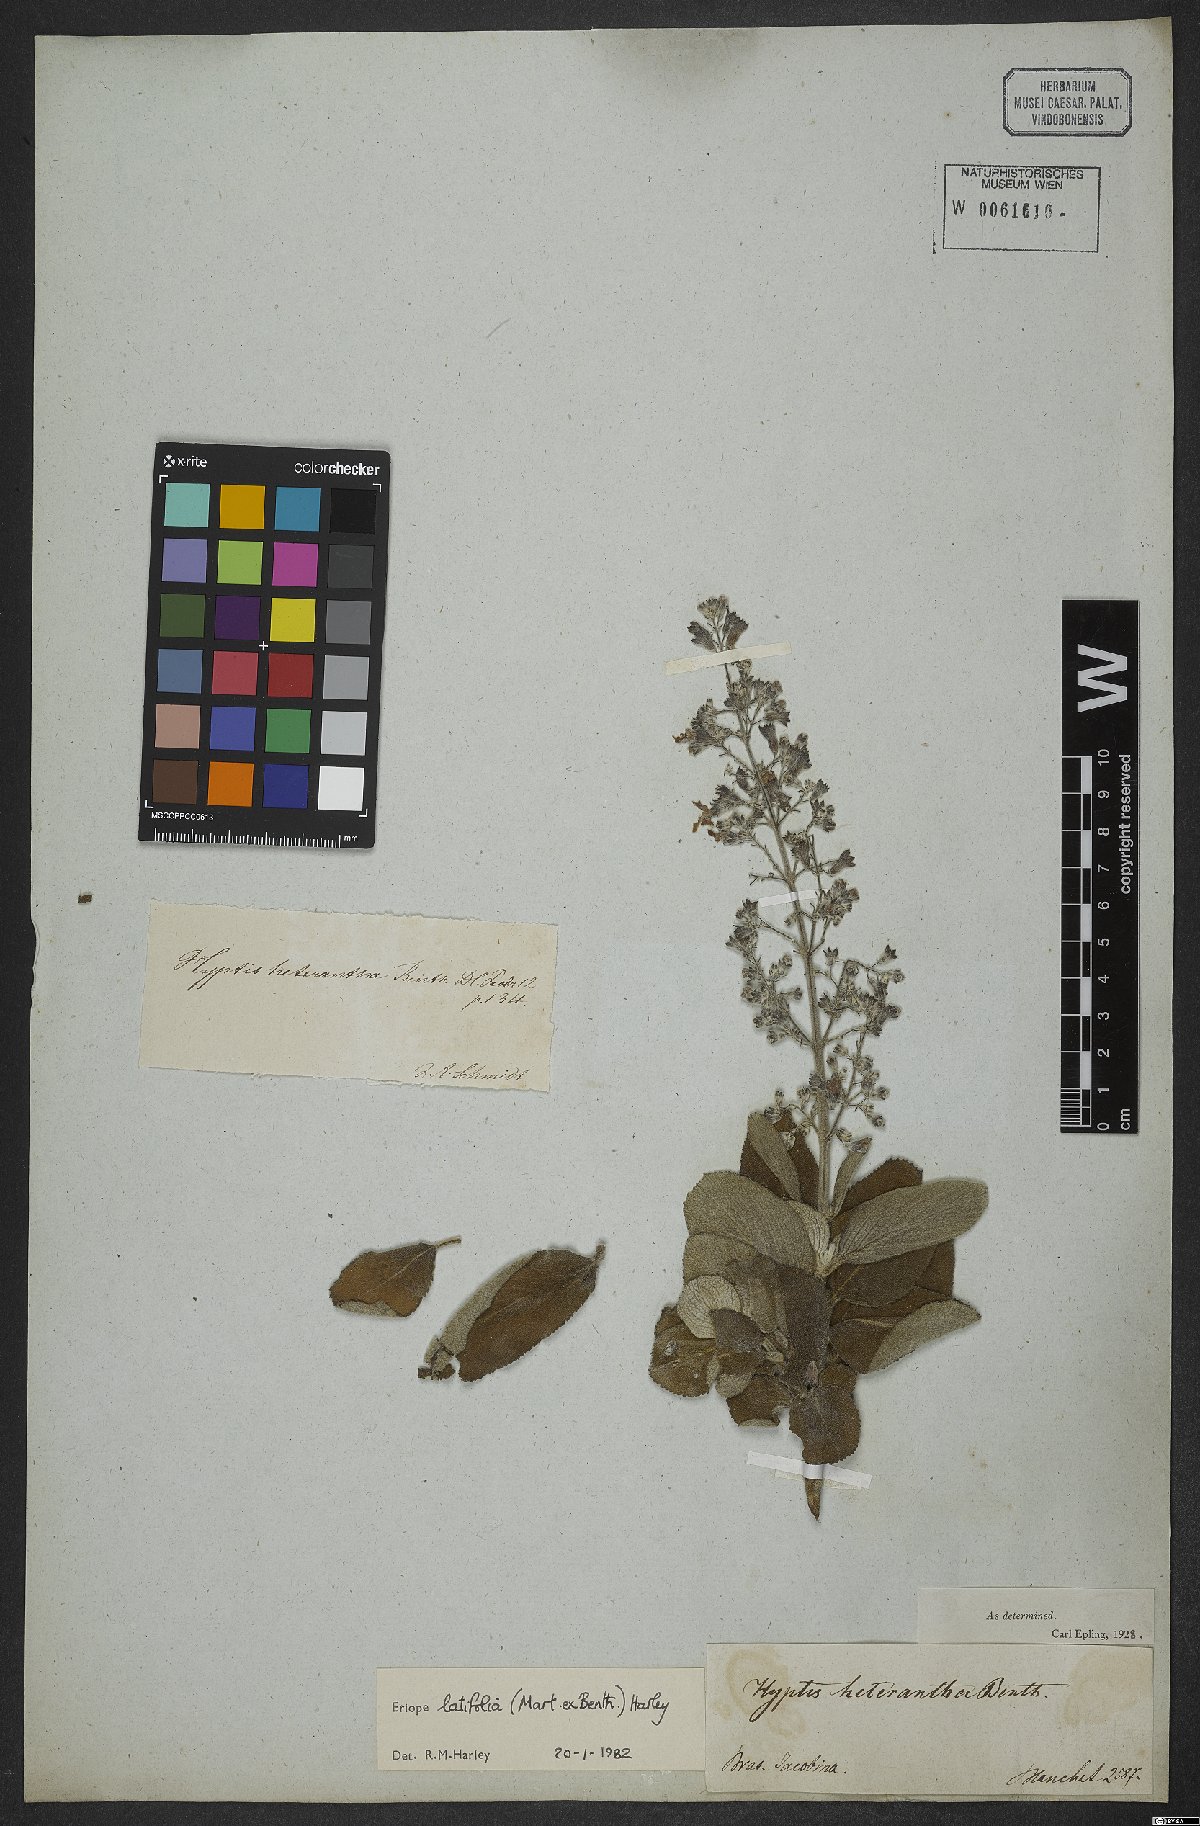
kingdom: Plantae
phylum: Tracheophyta
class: Magnoliopsida
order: Lamiales
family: Lamiaceae
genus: Eriope
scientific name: Eriope latifolia
